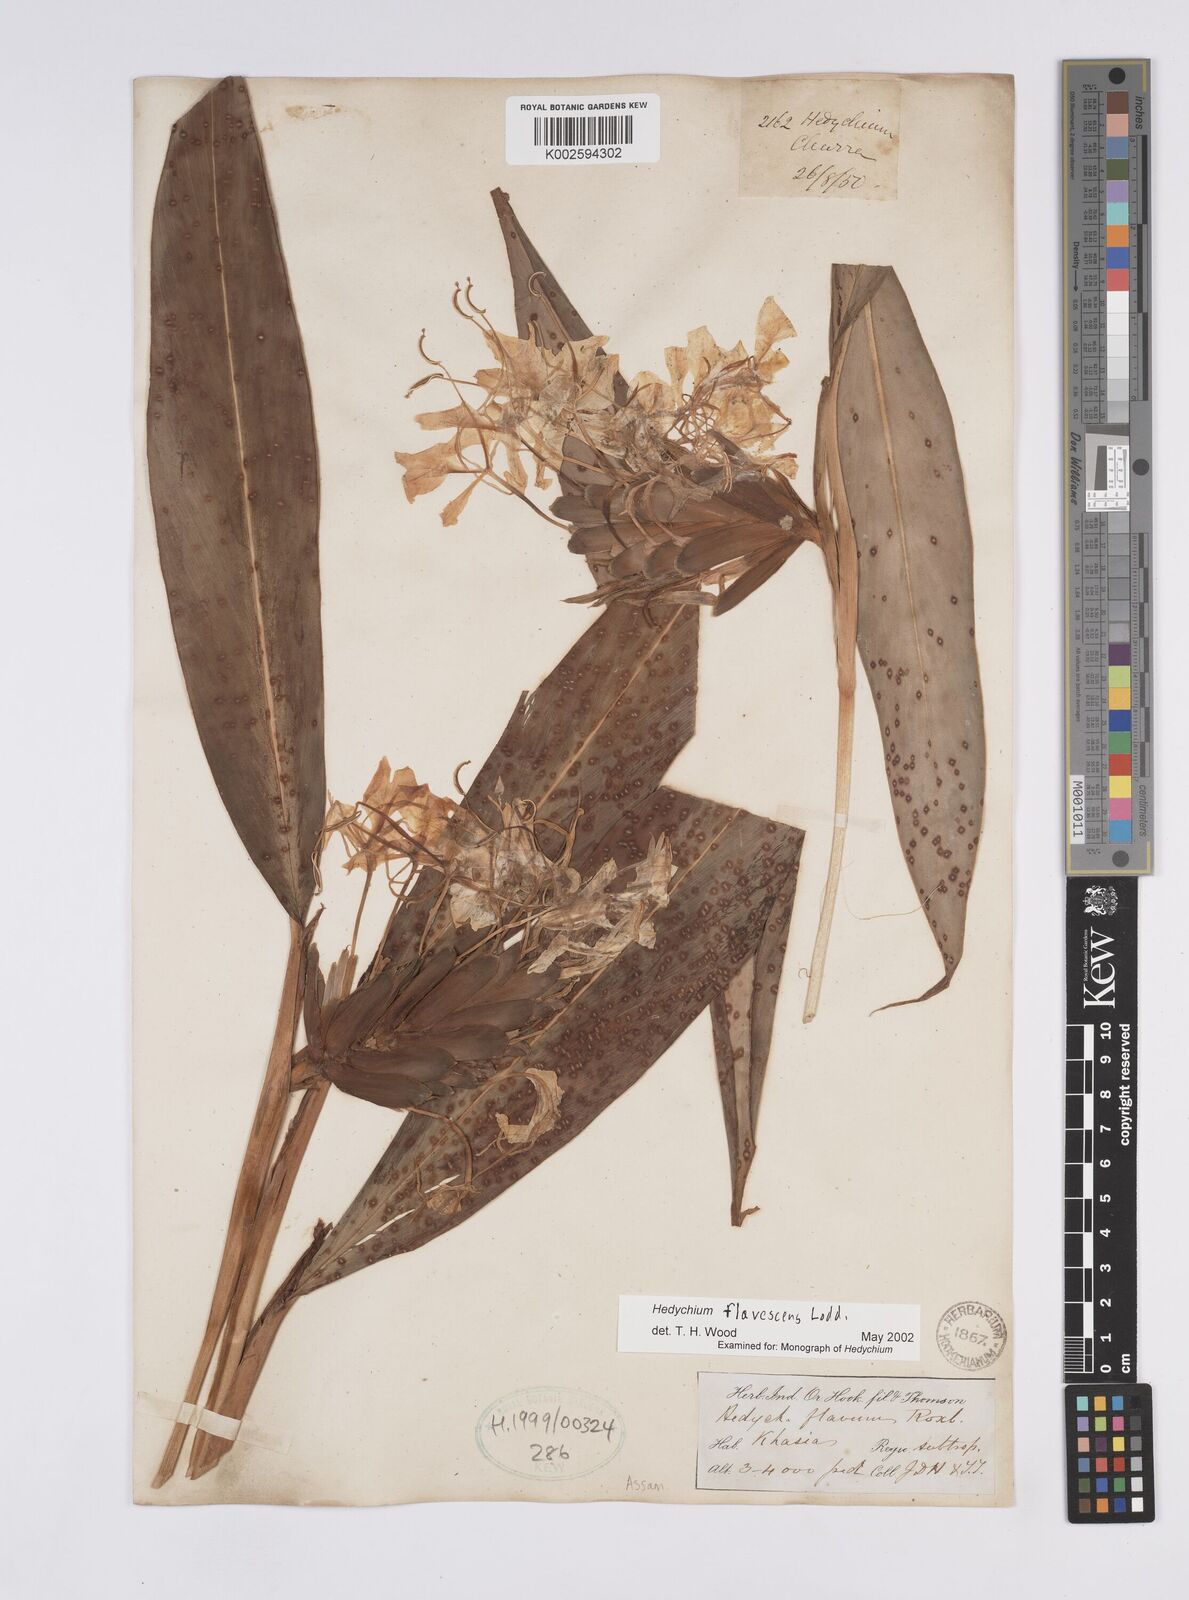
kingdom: Plantae
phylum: Tracheophyta
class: Liliopsida
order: Zingiberales
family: Zingiberaceae
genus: Hedychium
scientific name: Hedychium flavescens
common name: Yellow ginger
